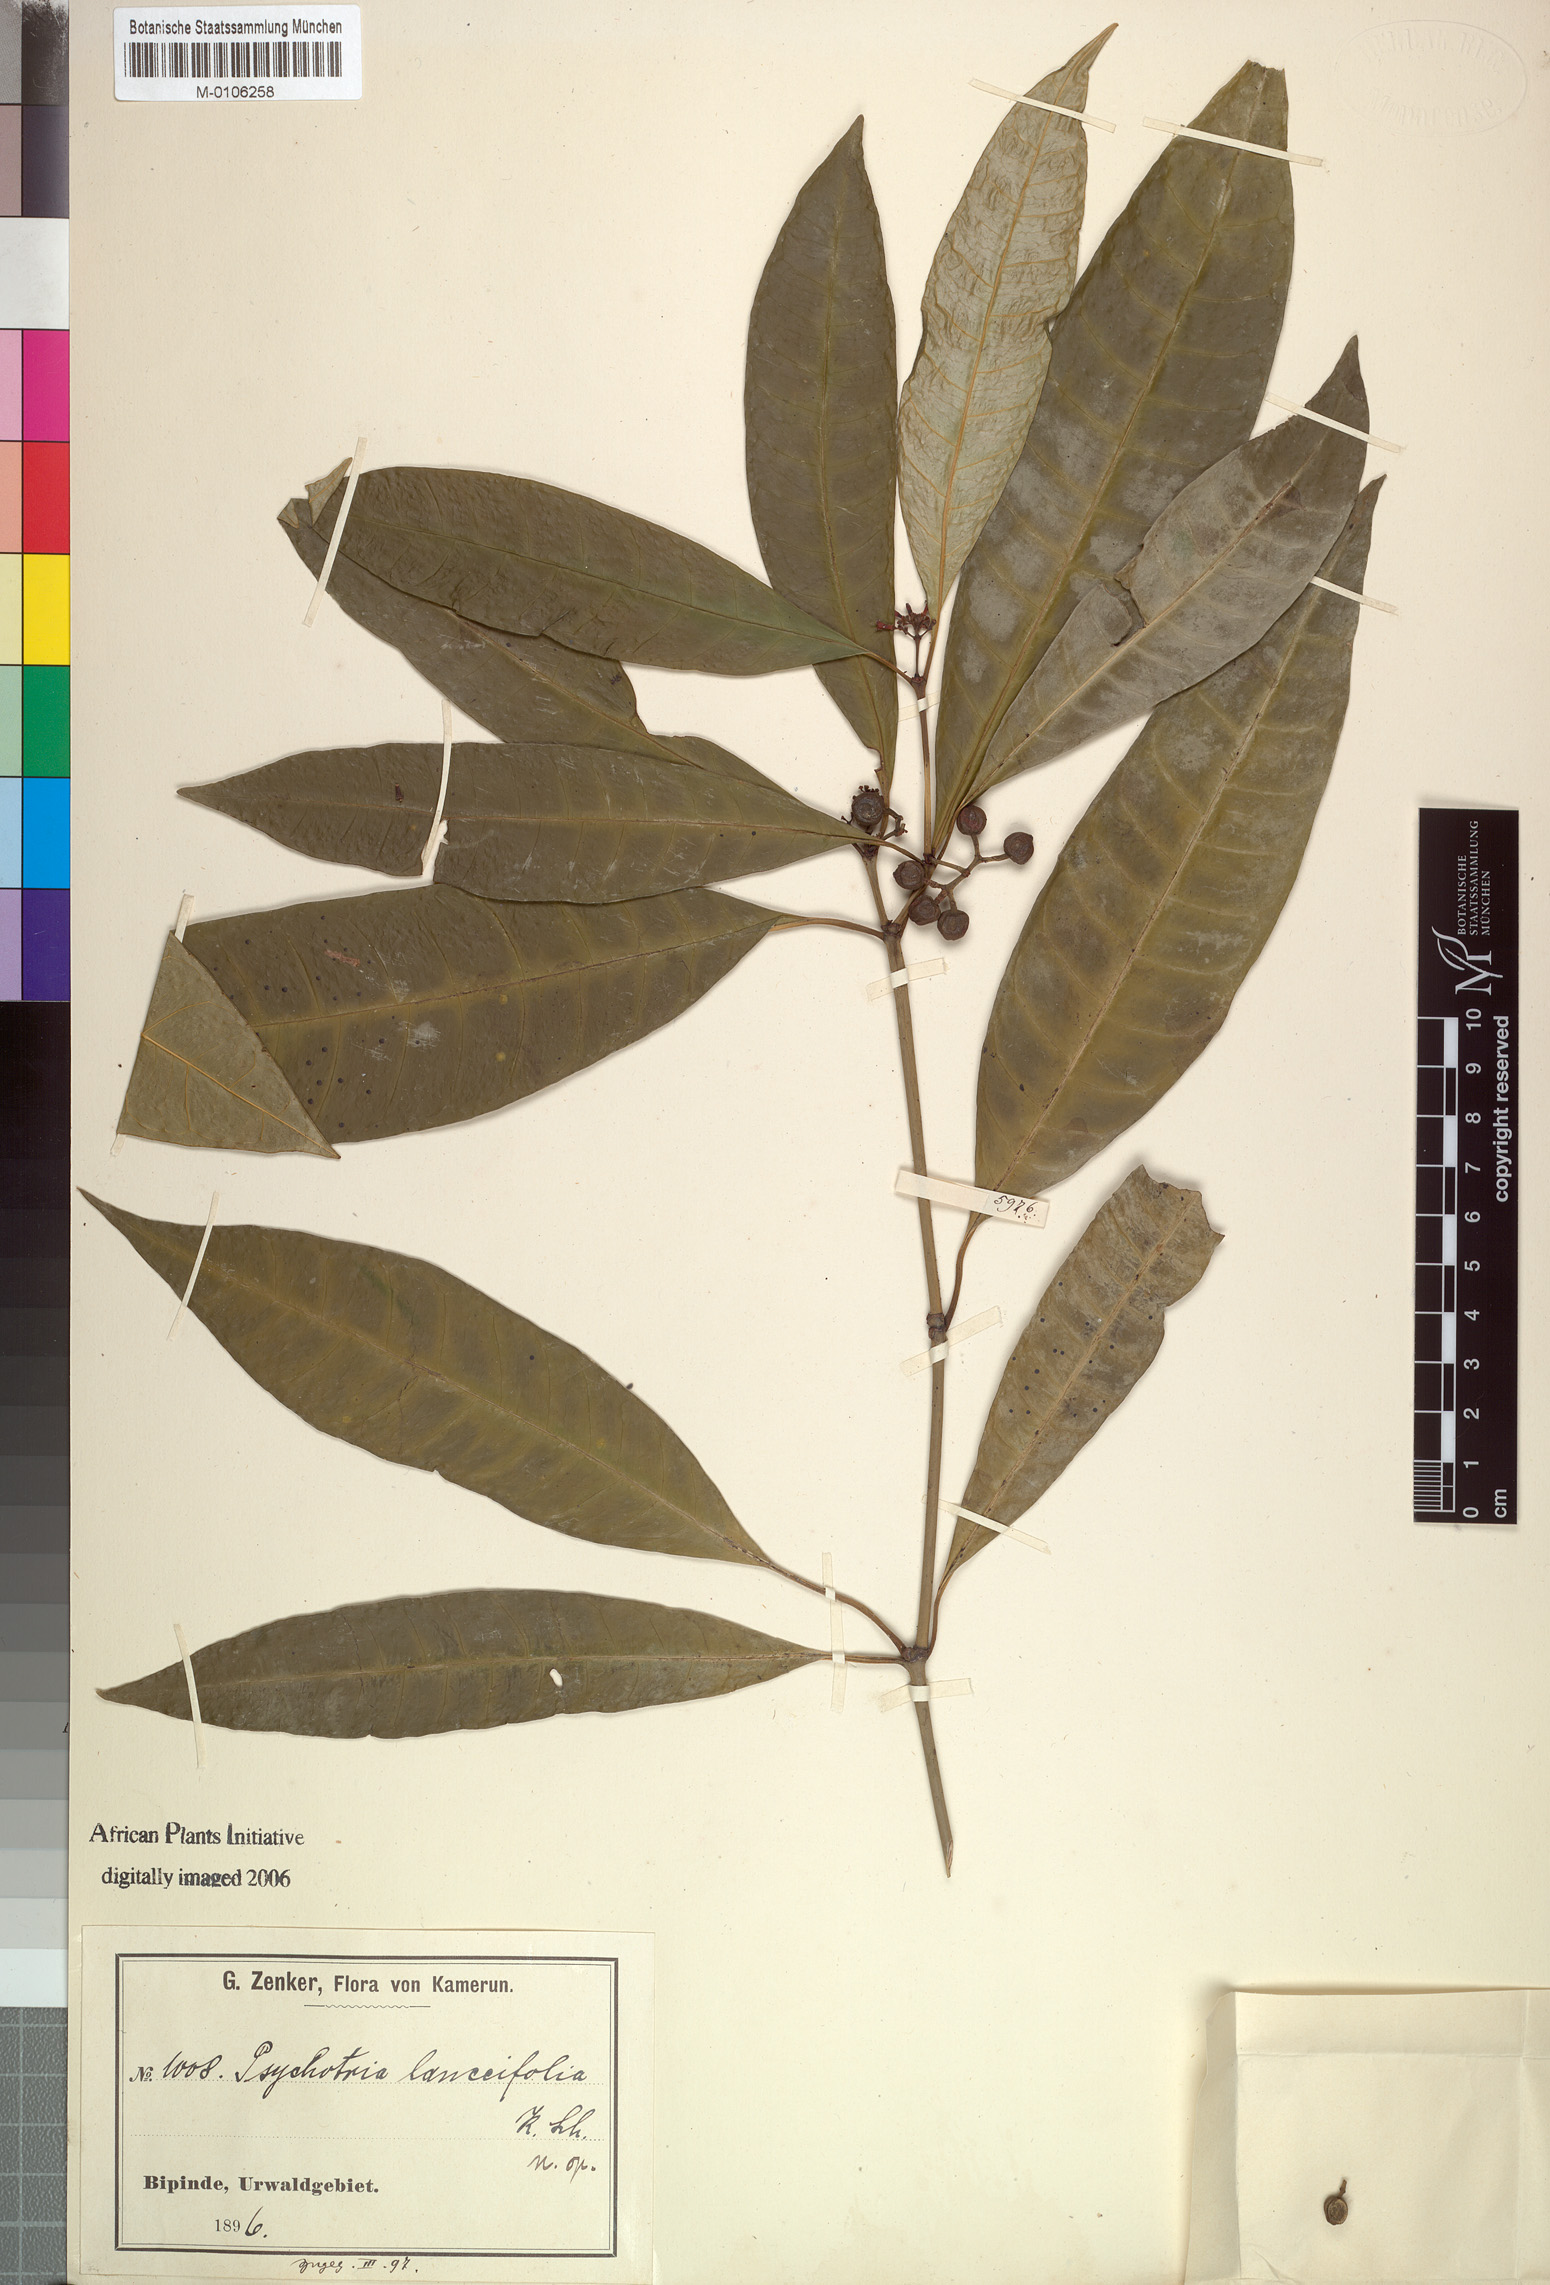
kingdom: Plantae
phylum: Tracheophyta
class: Magnoliopsida
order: Gentianales
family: Rubiaceae
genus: Psychotria
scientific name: Psychotria lanceifolia
